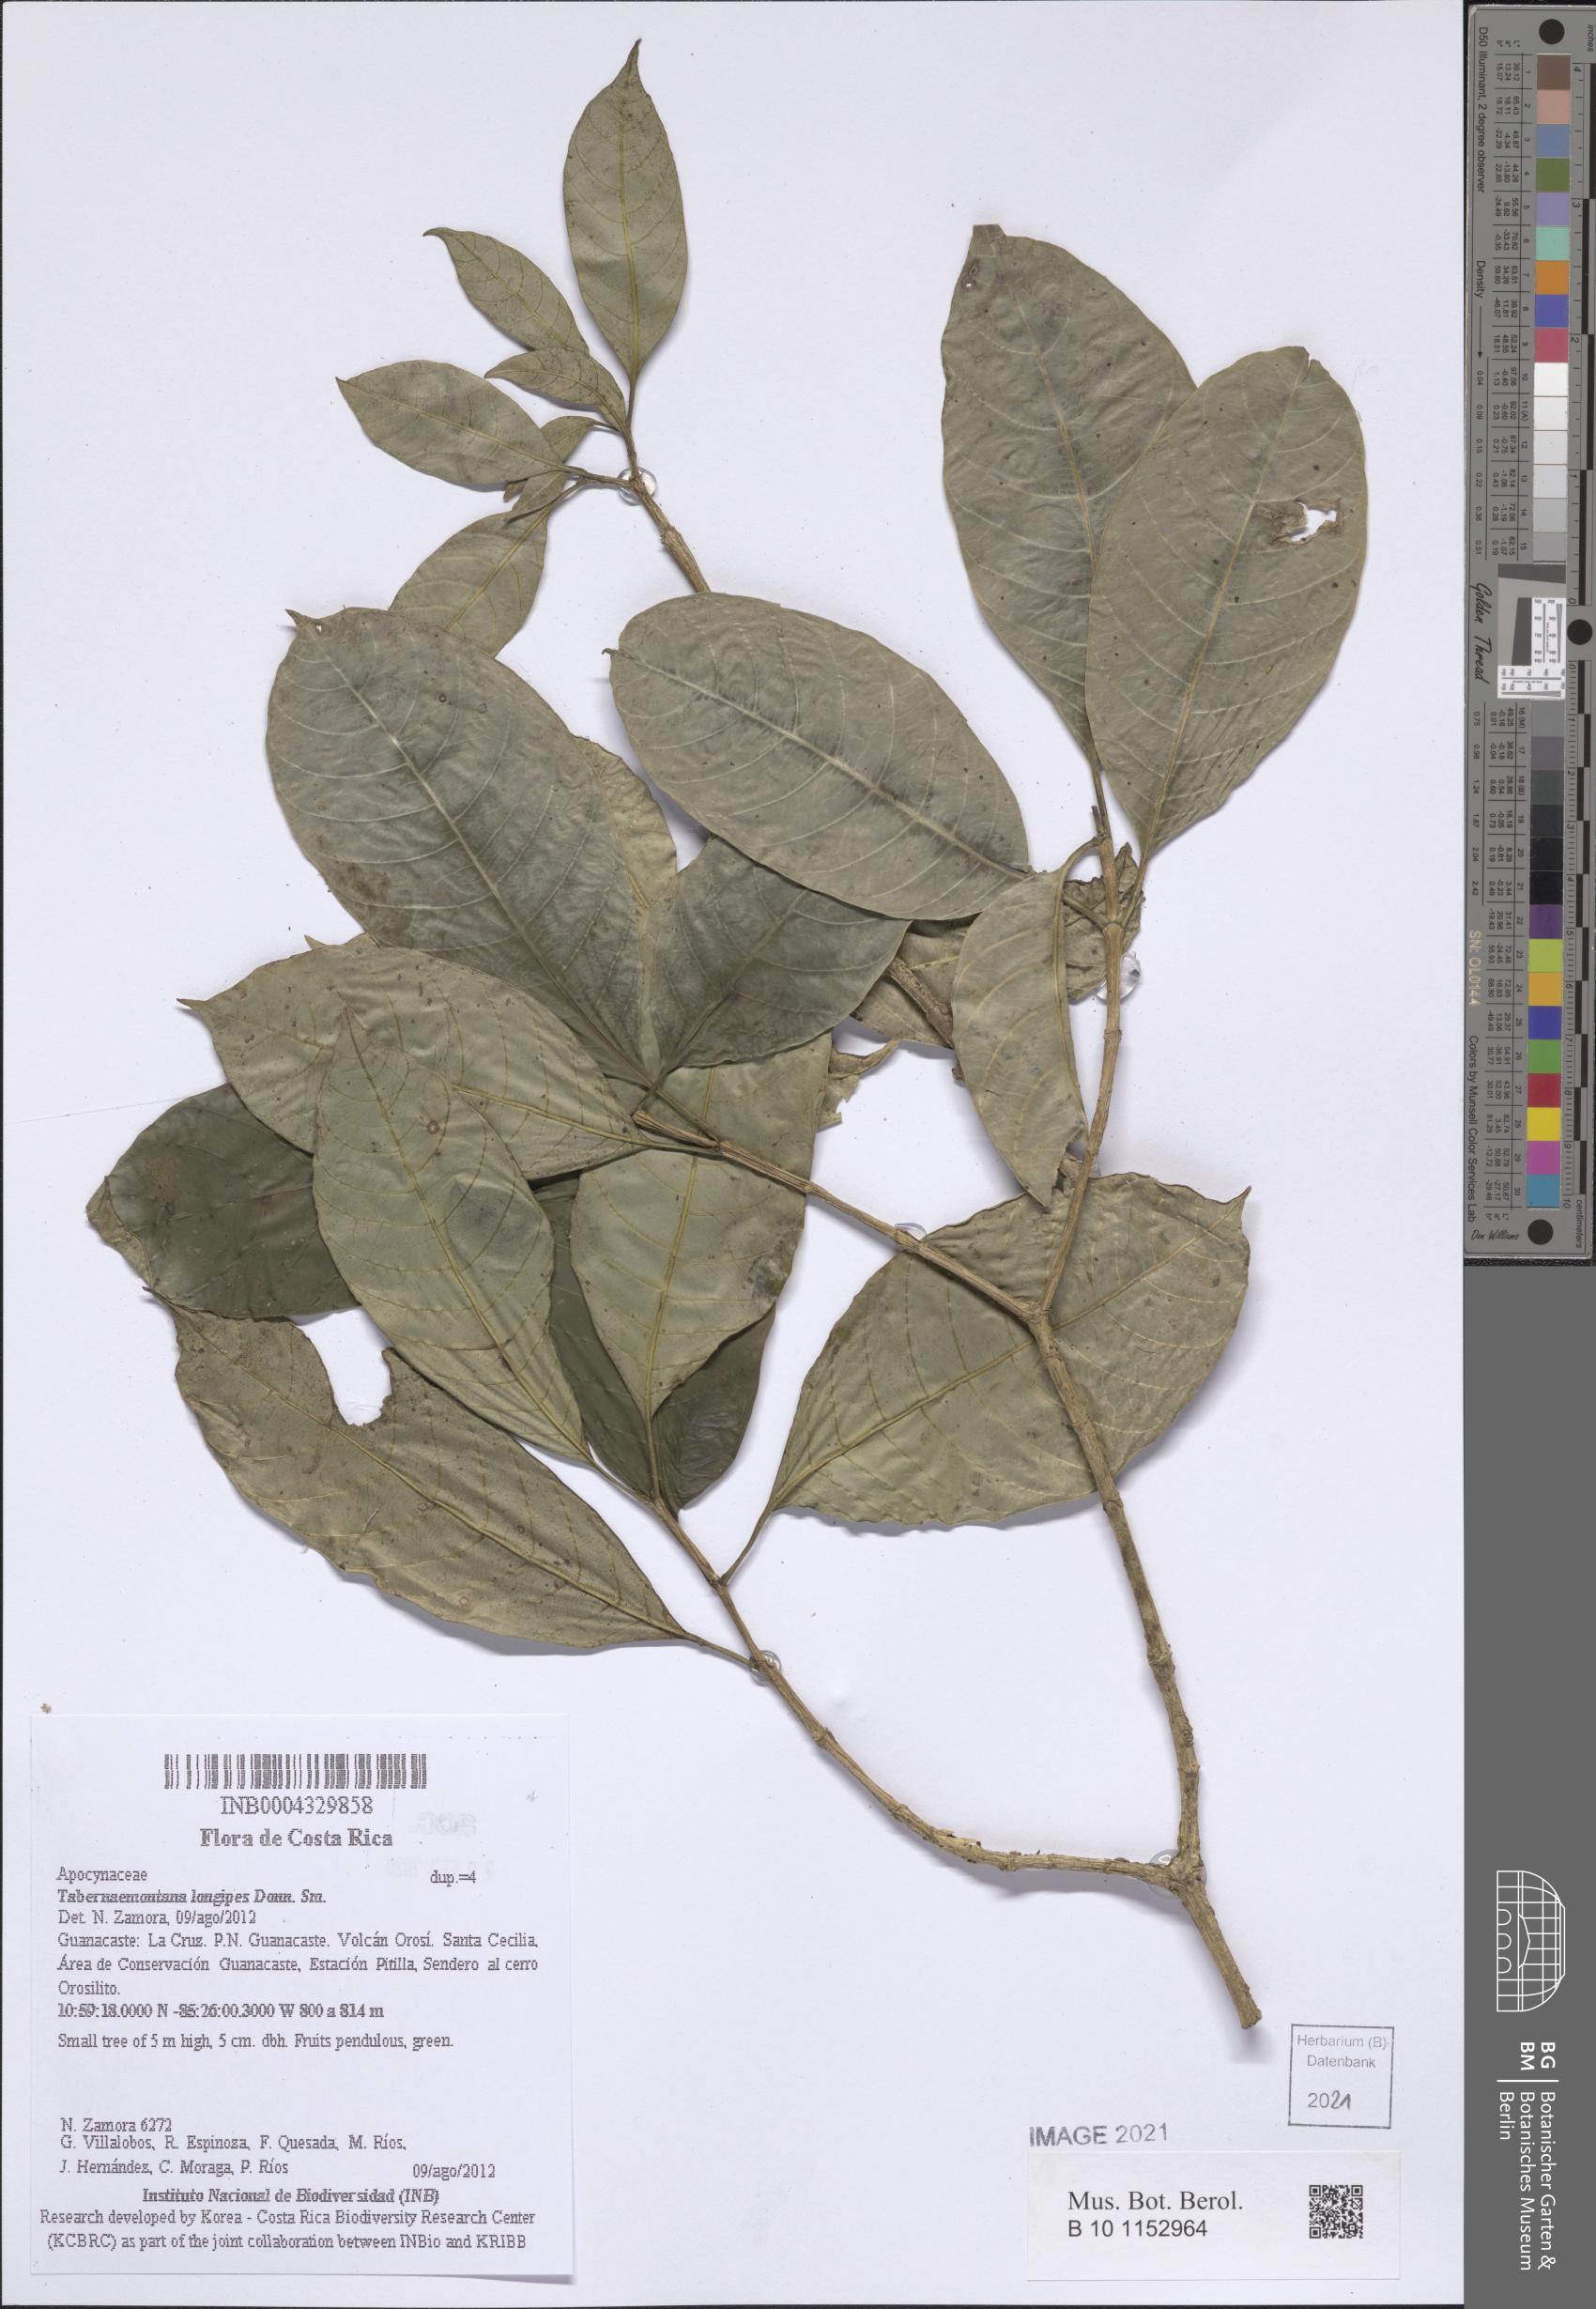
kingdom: Plantae
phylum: Tracheophyta
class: Magnoliopsida
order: Gentianales
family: Apocynaceae
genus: Tabernaemontana
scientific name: Tabernaemontana longipes
